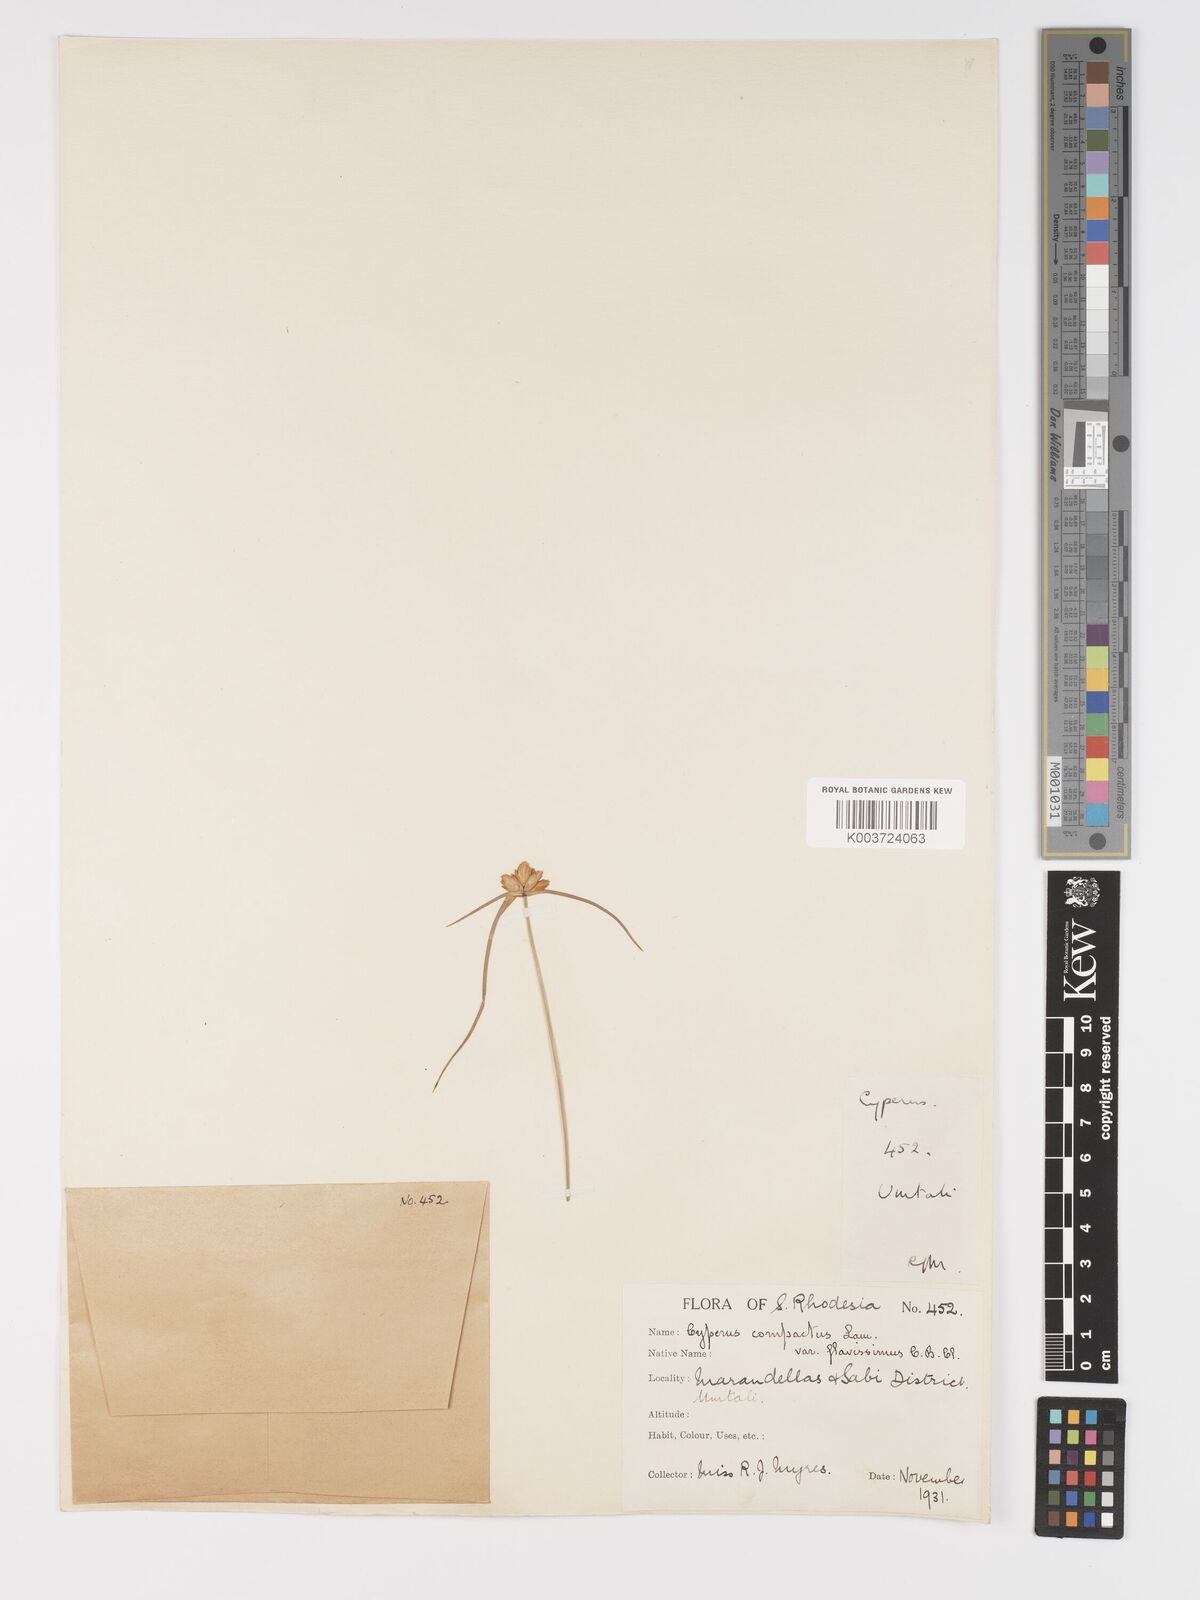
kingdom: Plantae
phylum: Tracheophyta
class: Liliopsida
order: Poales
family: Cyperaceae
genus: Cyperus
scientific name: Cyperus niveus
